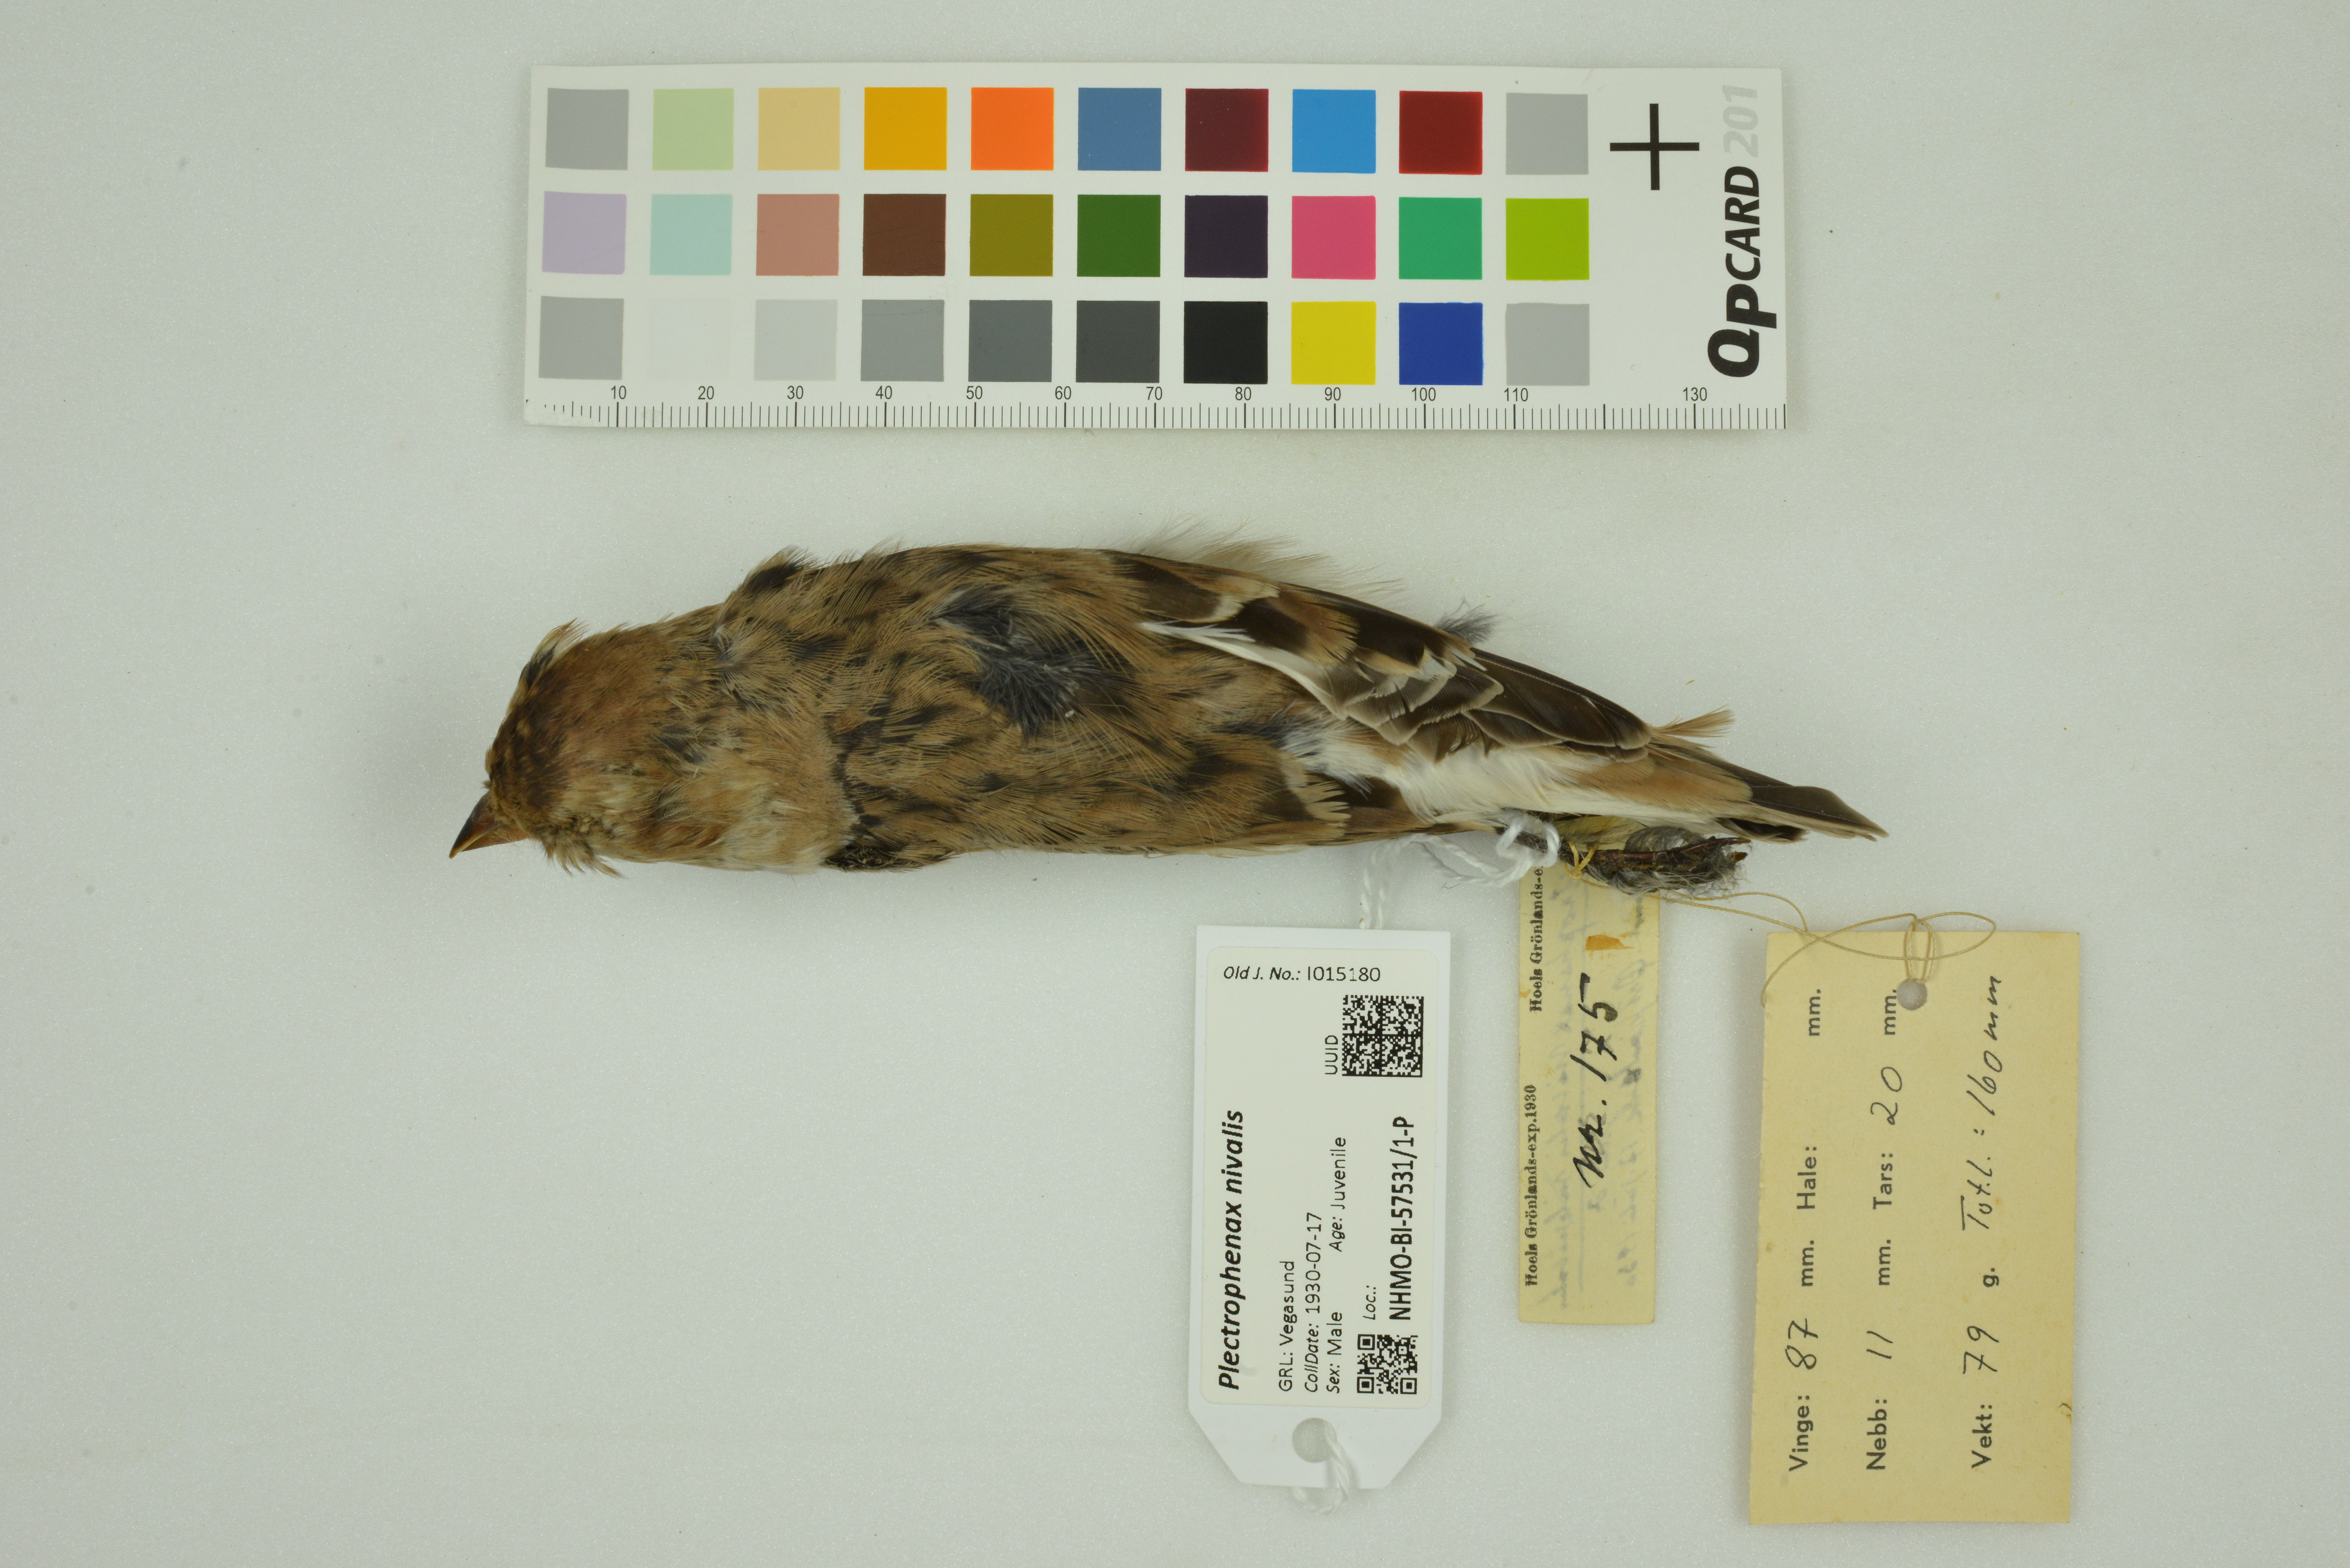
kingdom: Animalia
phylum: Chordata
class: Aves
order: Passeriformes
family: Calcariidae
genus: Plectrophenax
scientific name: Plectrophenax nivalis
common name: Snow bunting
